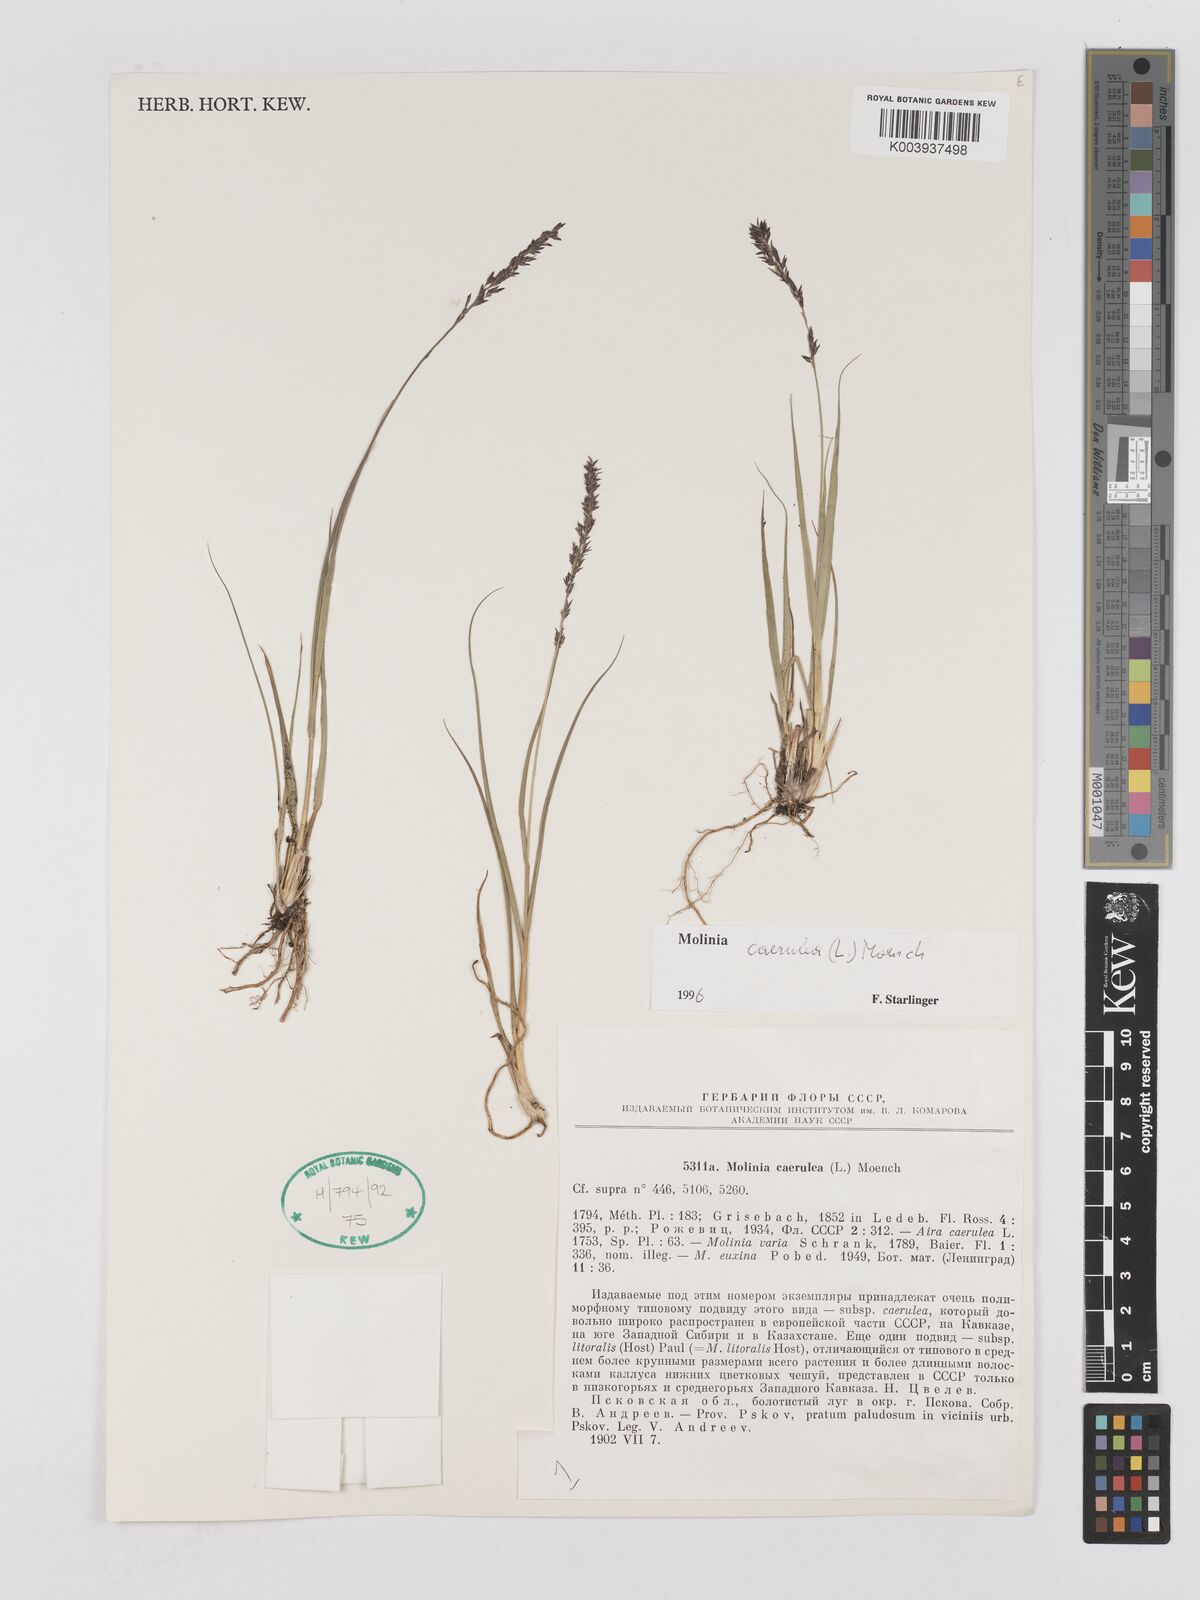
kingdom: Plantae
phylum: Tracheophyta
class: Liliopsida
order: Poales
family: Poaceae
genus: Molinia
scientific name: Molinia caerulea
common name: Purple moor-grass
